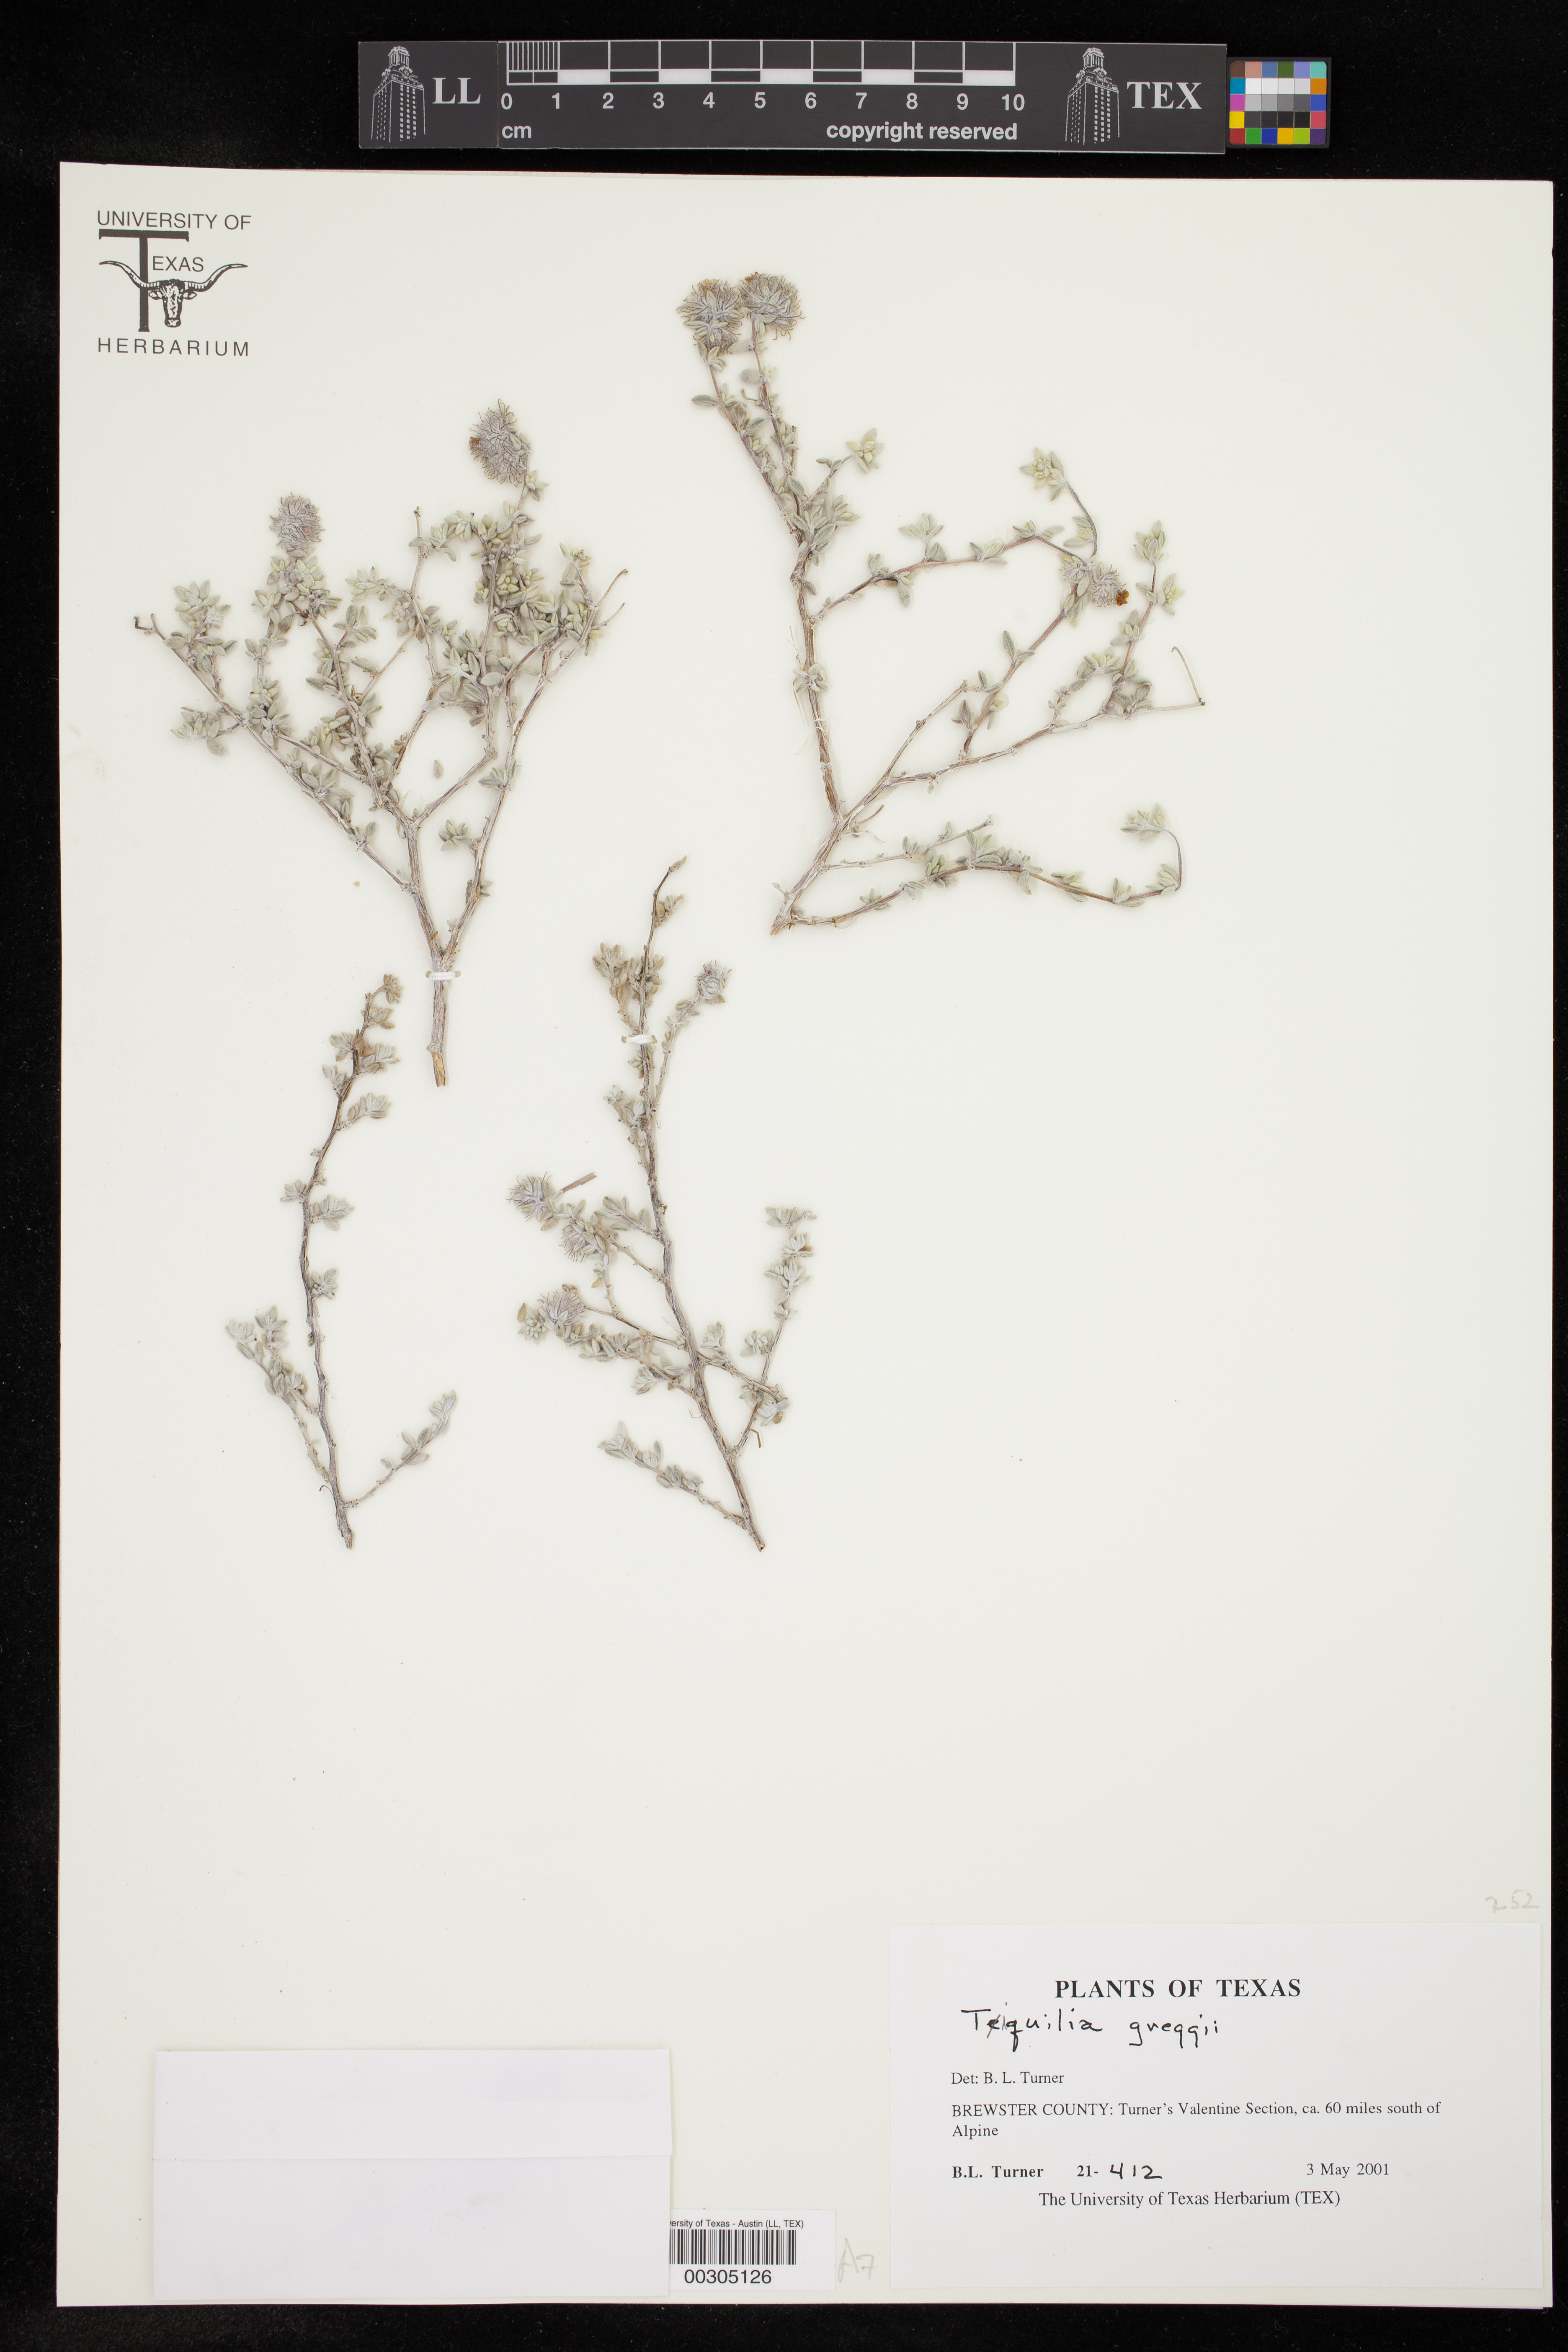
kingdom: Plantae
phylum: Tracheophyta
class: Magnoliopsida
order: Boraginales
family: Ehretiaceae
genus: Tiquilia
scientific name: Tiquilia greggii
